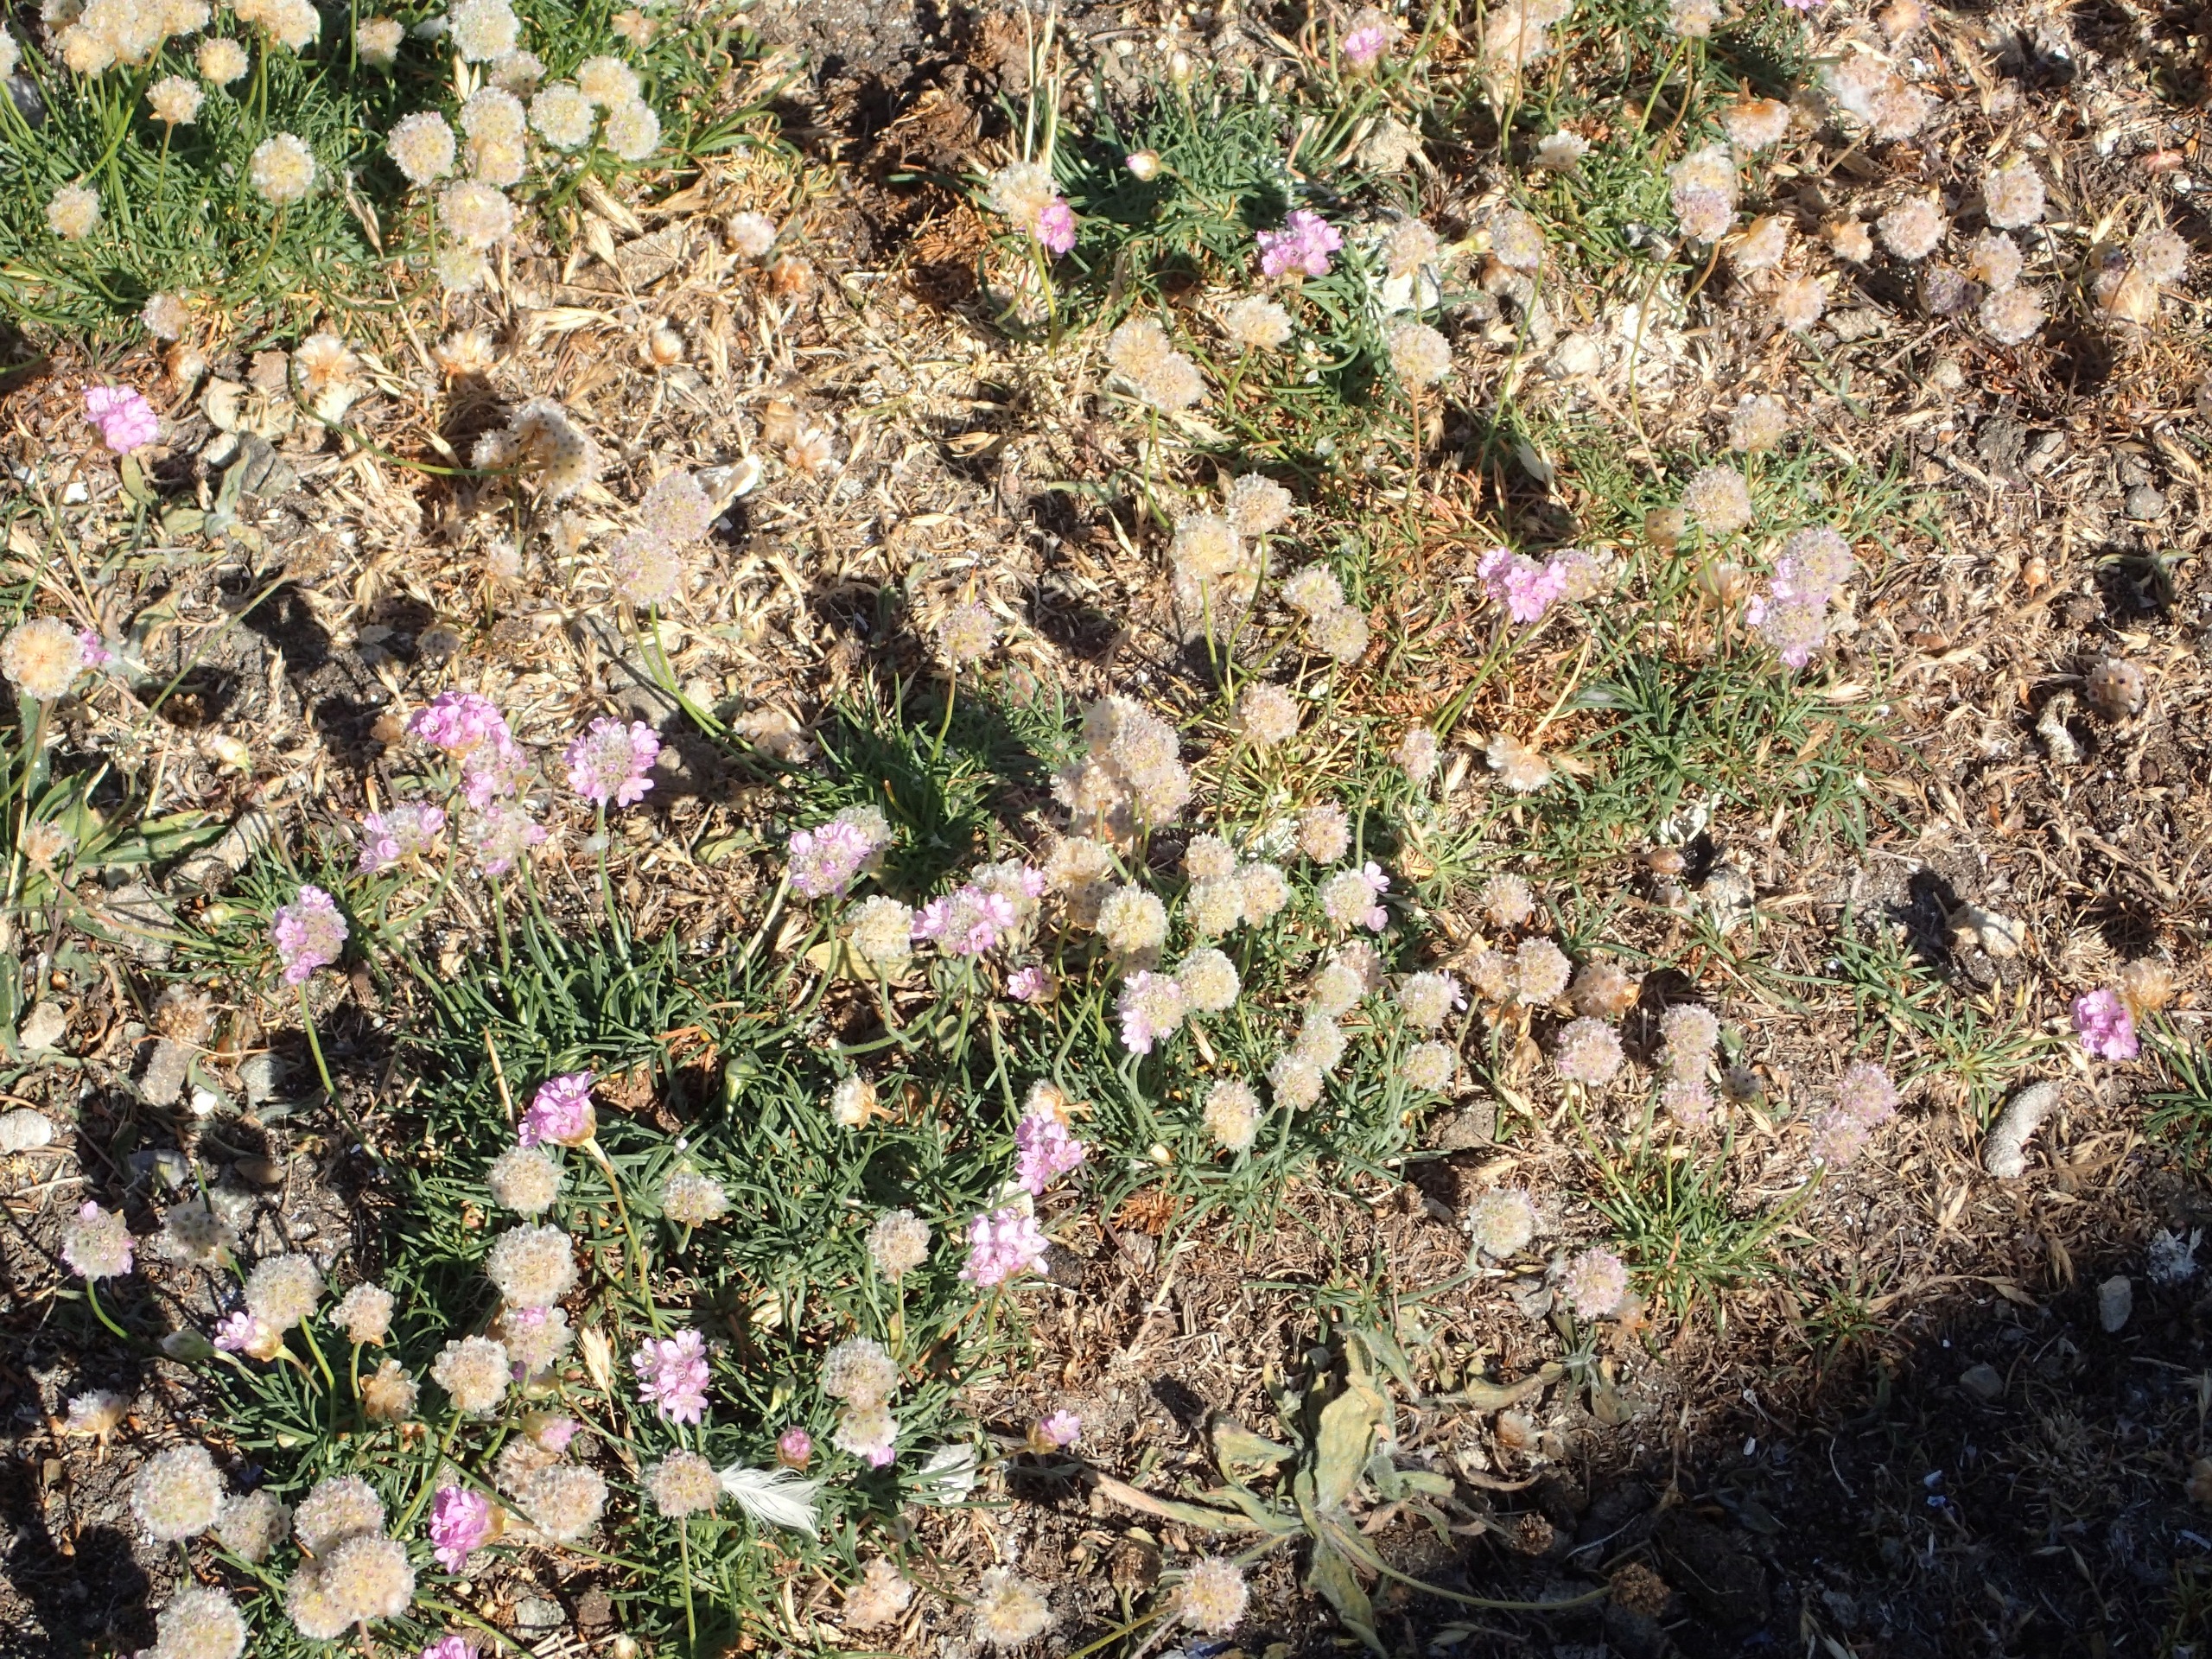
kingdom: Plantae
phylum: Tracheophyta
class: Magnoliopsida
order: Caryophyllales
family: Plumbaginaceae
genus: Armeria
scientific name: Armeria maritima
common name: Strand-engelskgræs
